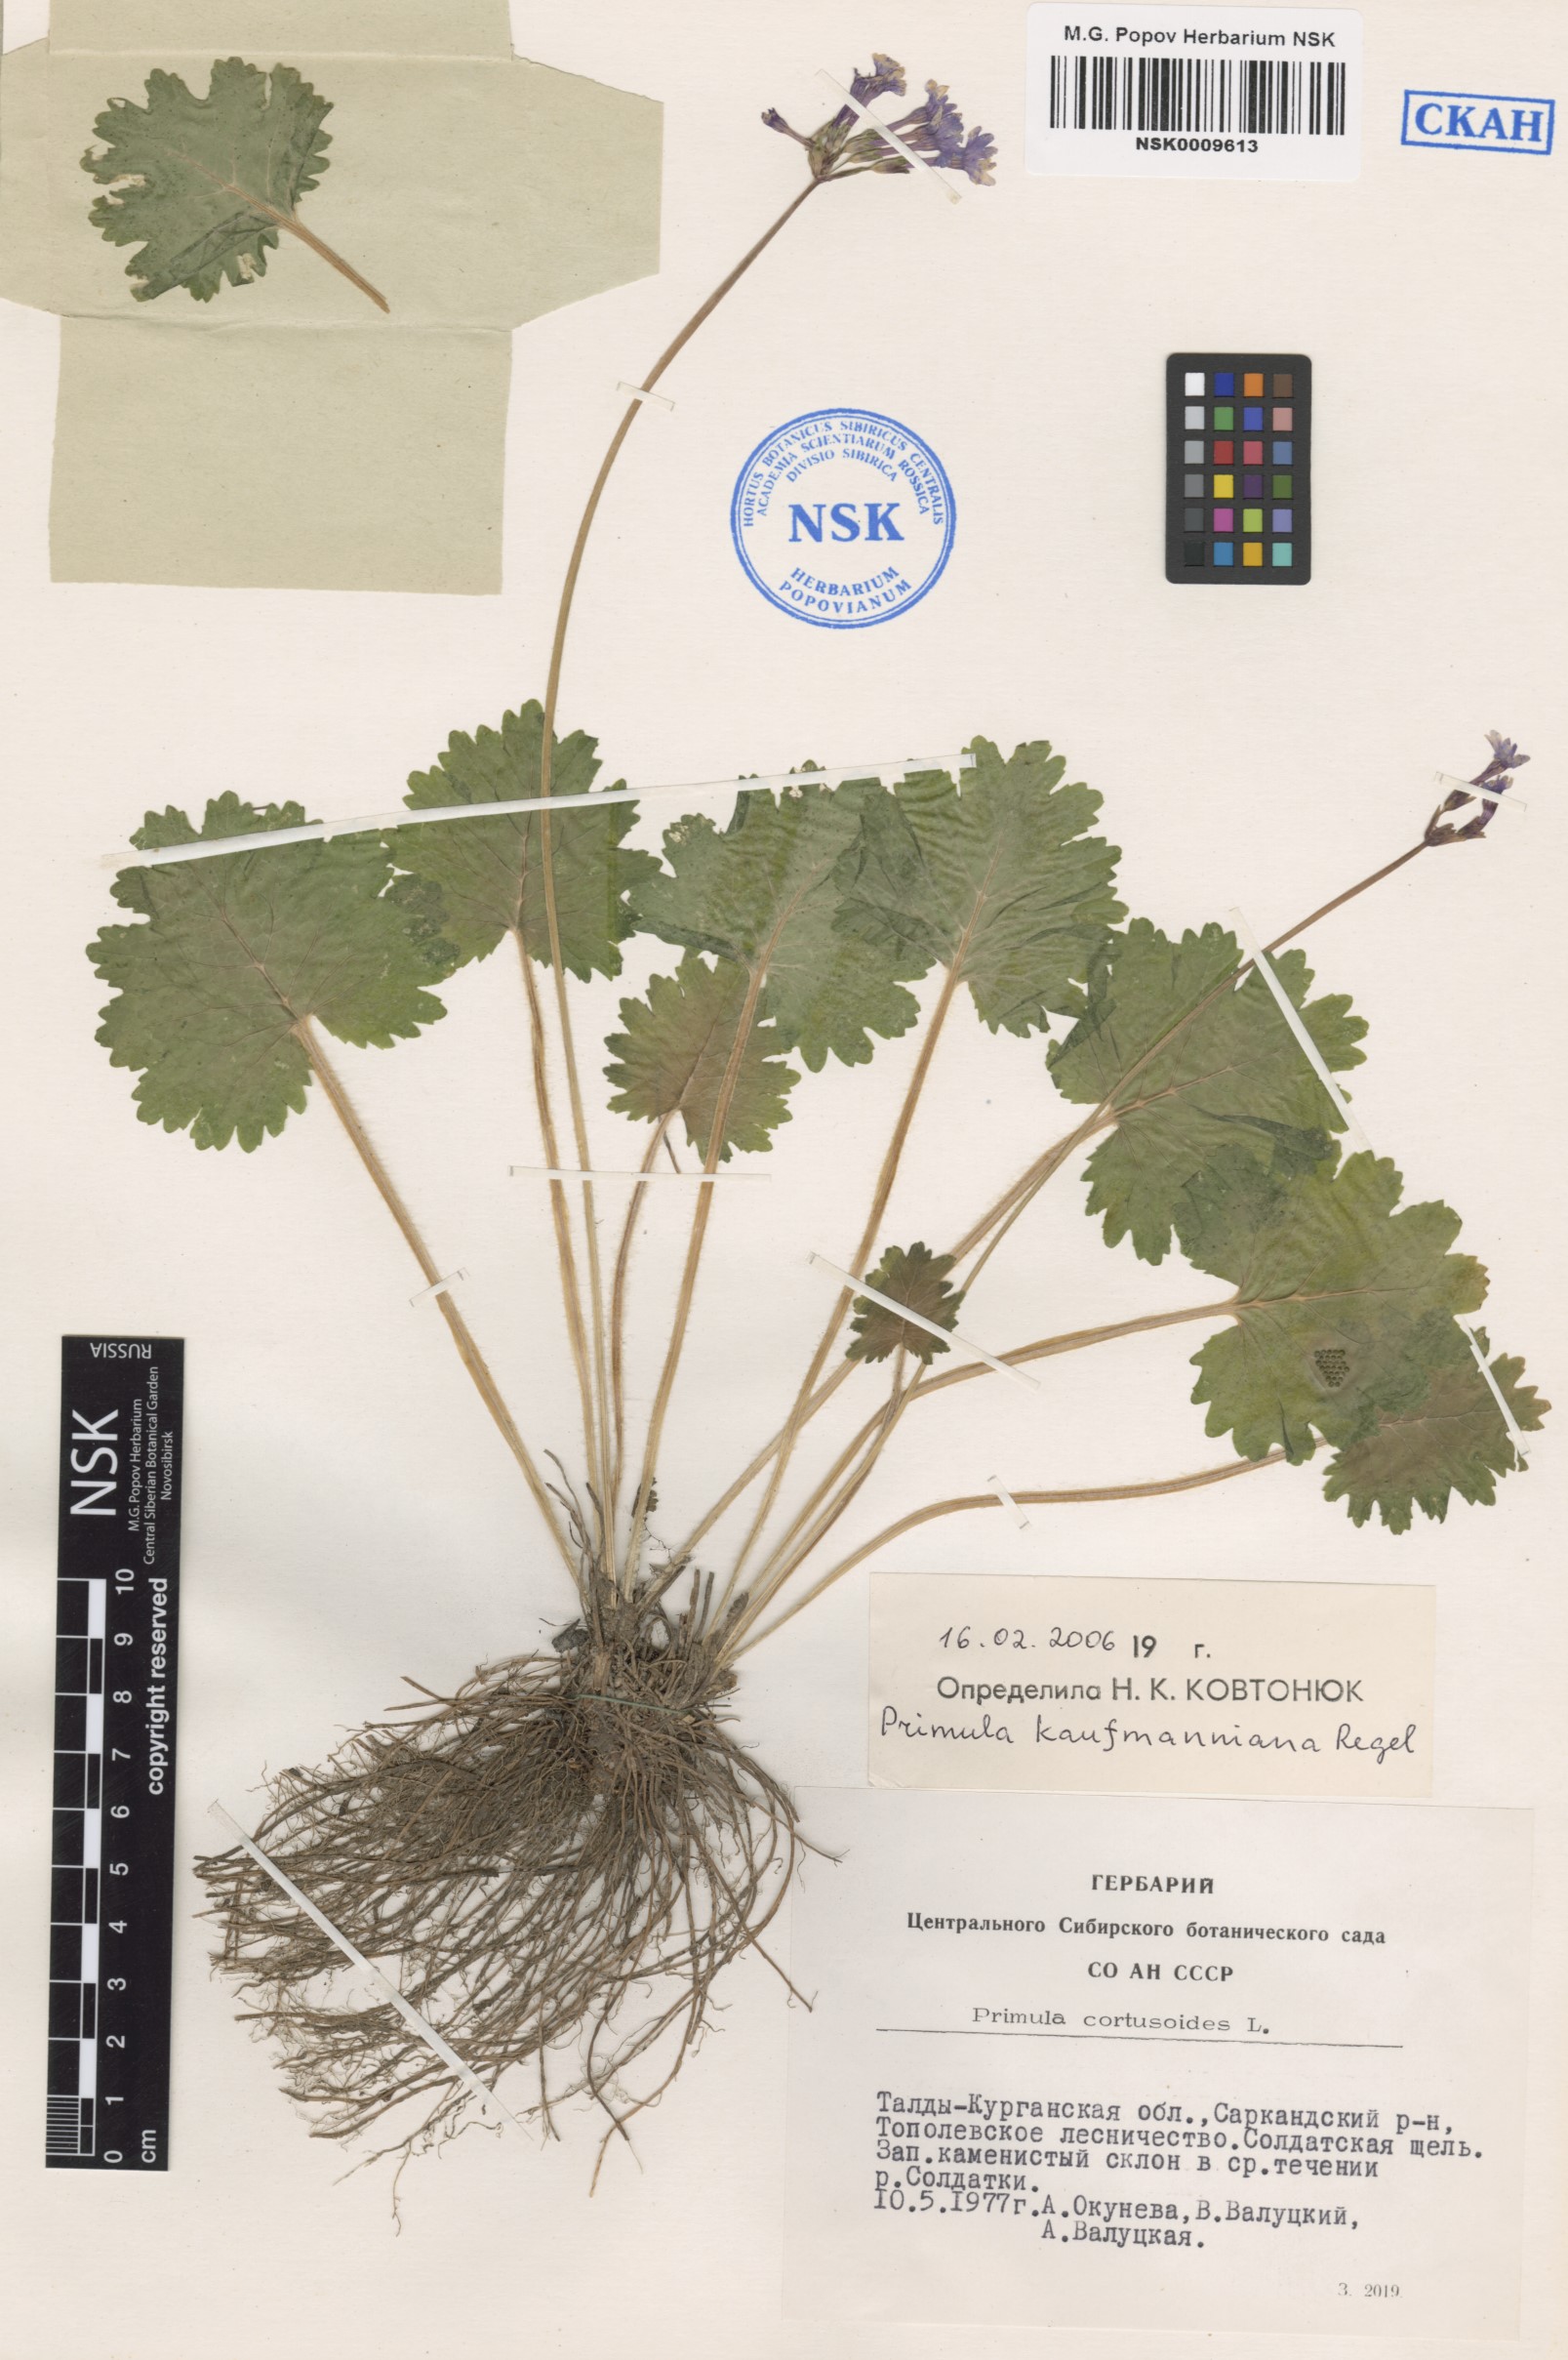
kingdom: Plantae
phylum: Tracheophyta
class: Magnoliopsida
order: Ericales
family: Primulaceae
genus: Primula
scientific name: Primula kaufmanniana
